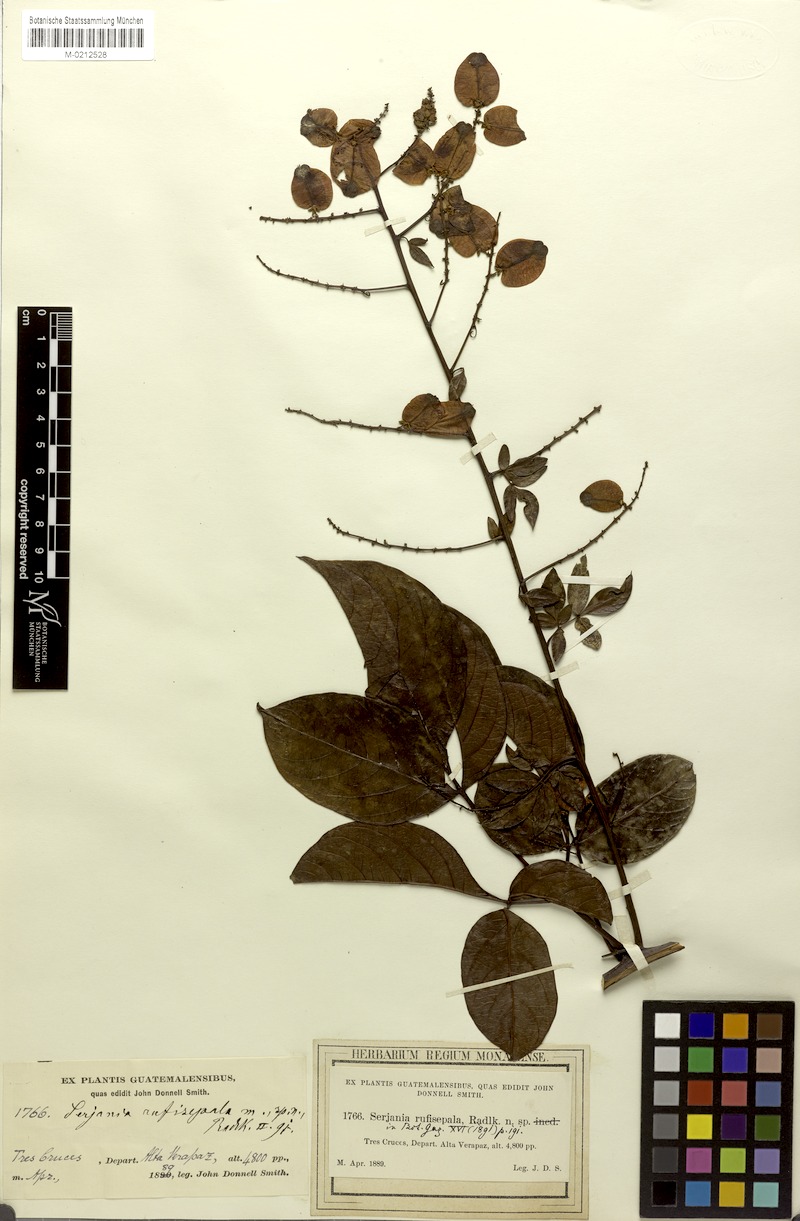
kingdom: Plantae
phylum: Tracheophyta
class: Magnoliopsida
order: Sapindales
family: Sapindaceae
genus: Serjania
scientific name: Serjania rufisepala
